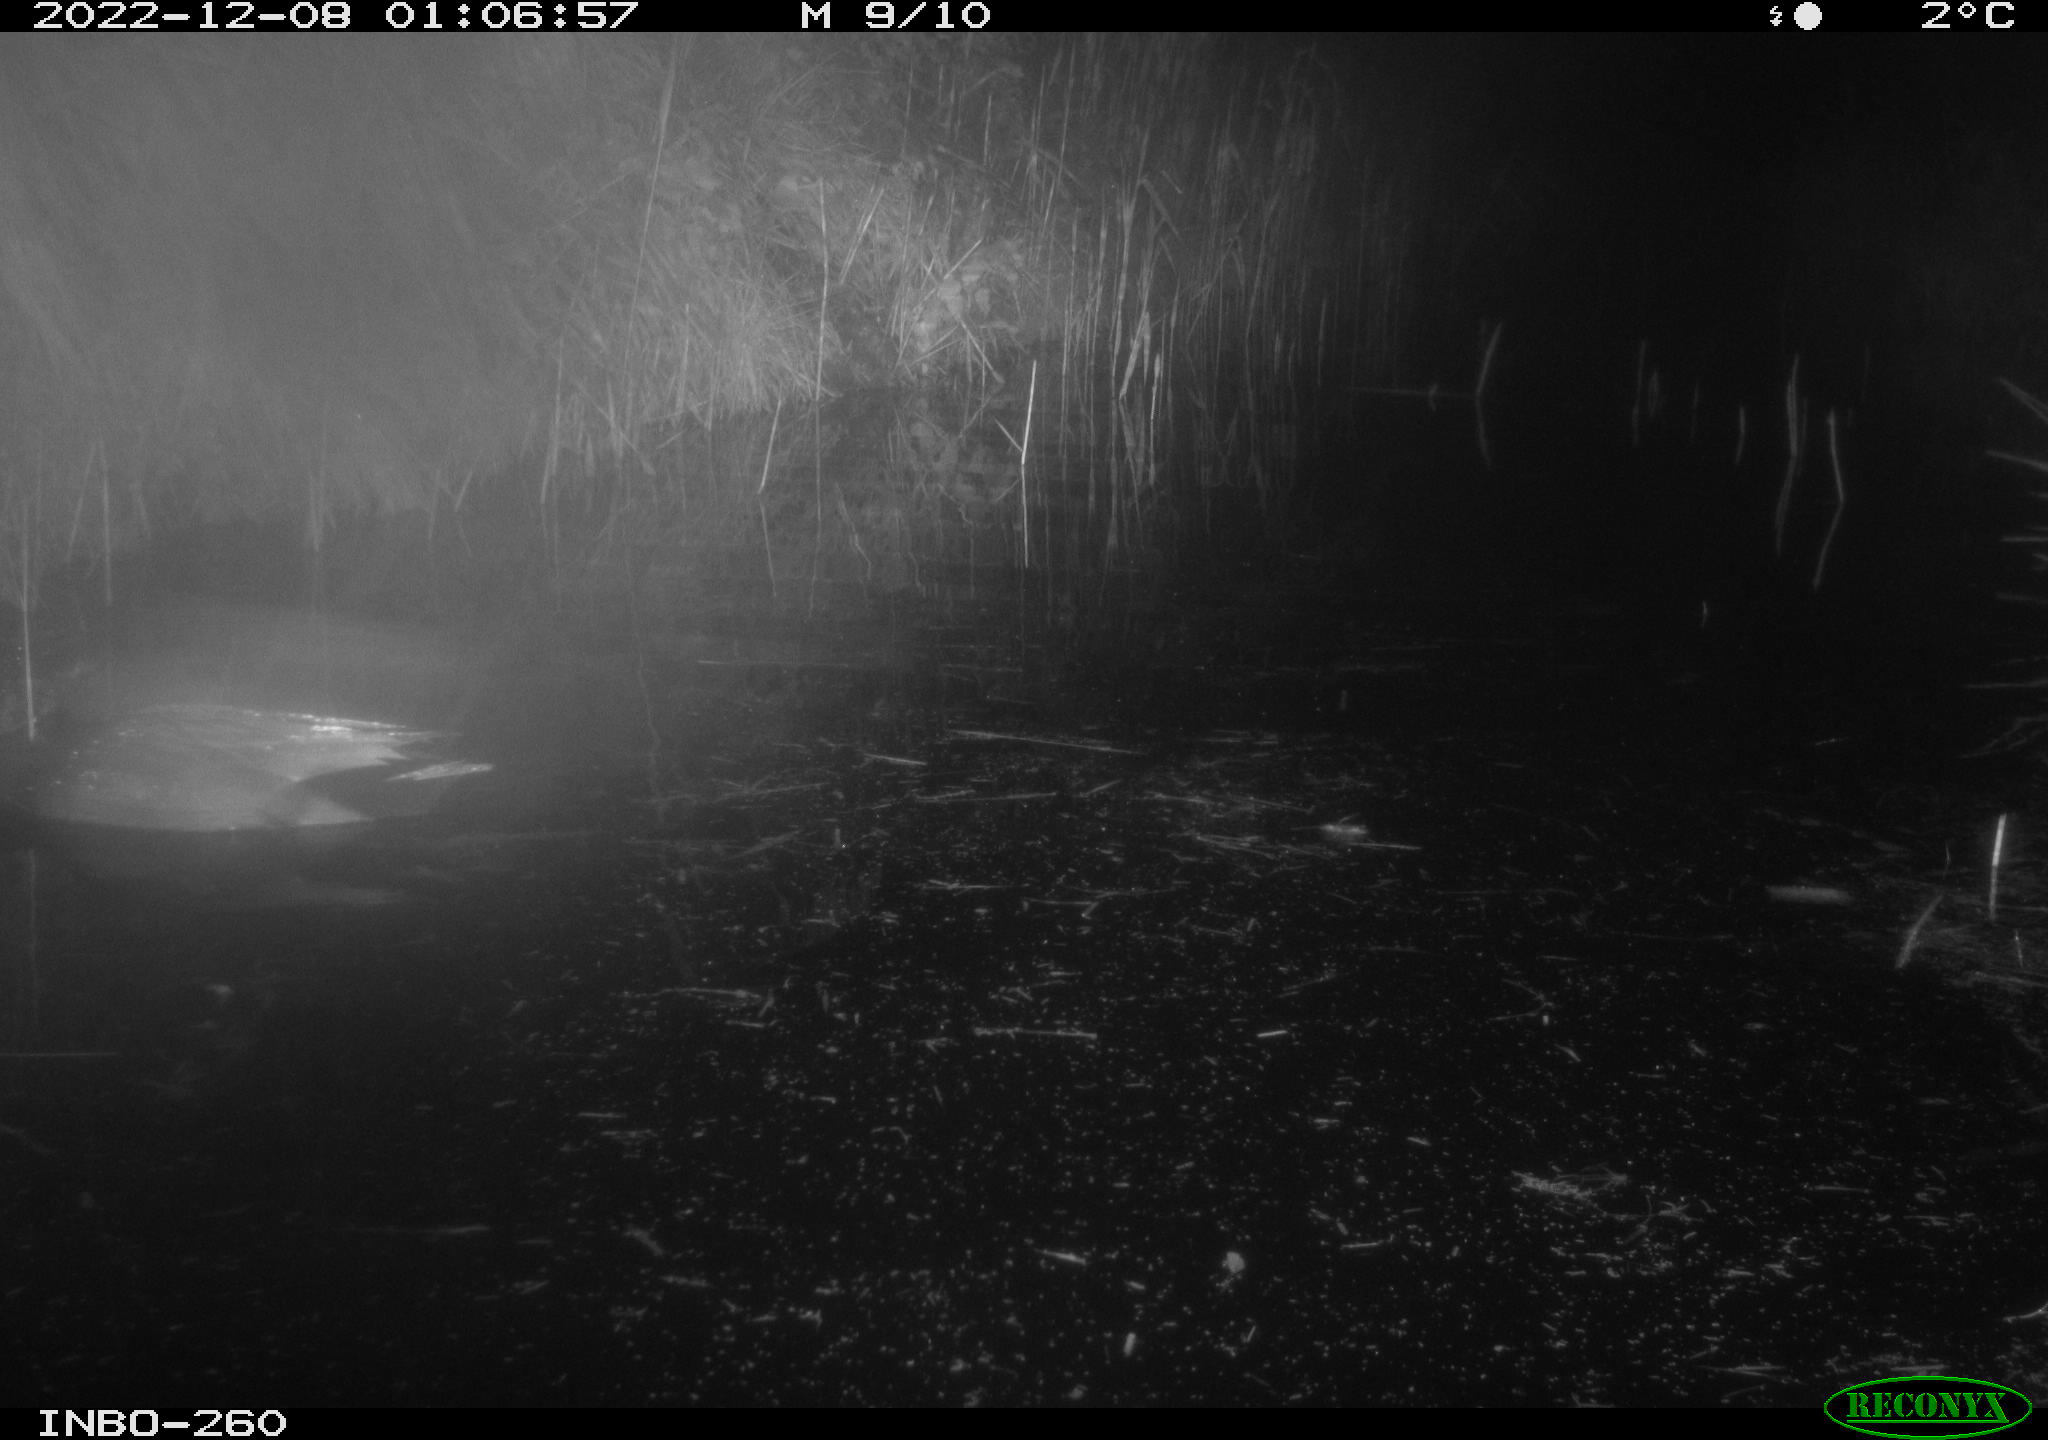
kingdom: Animalia
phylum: Chordata
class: Aves
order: Anseriformes
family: Anatidae
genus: Anas
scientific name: Anas
